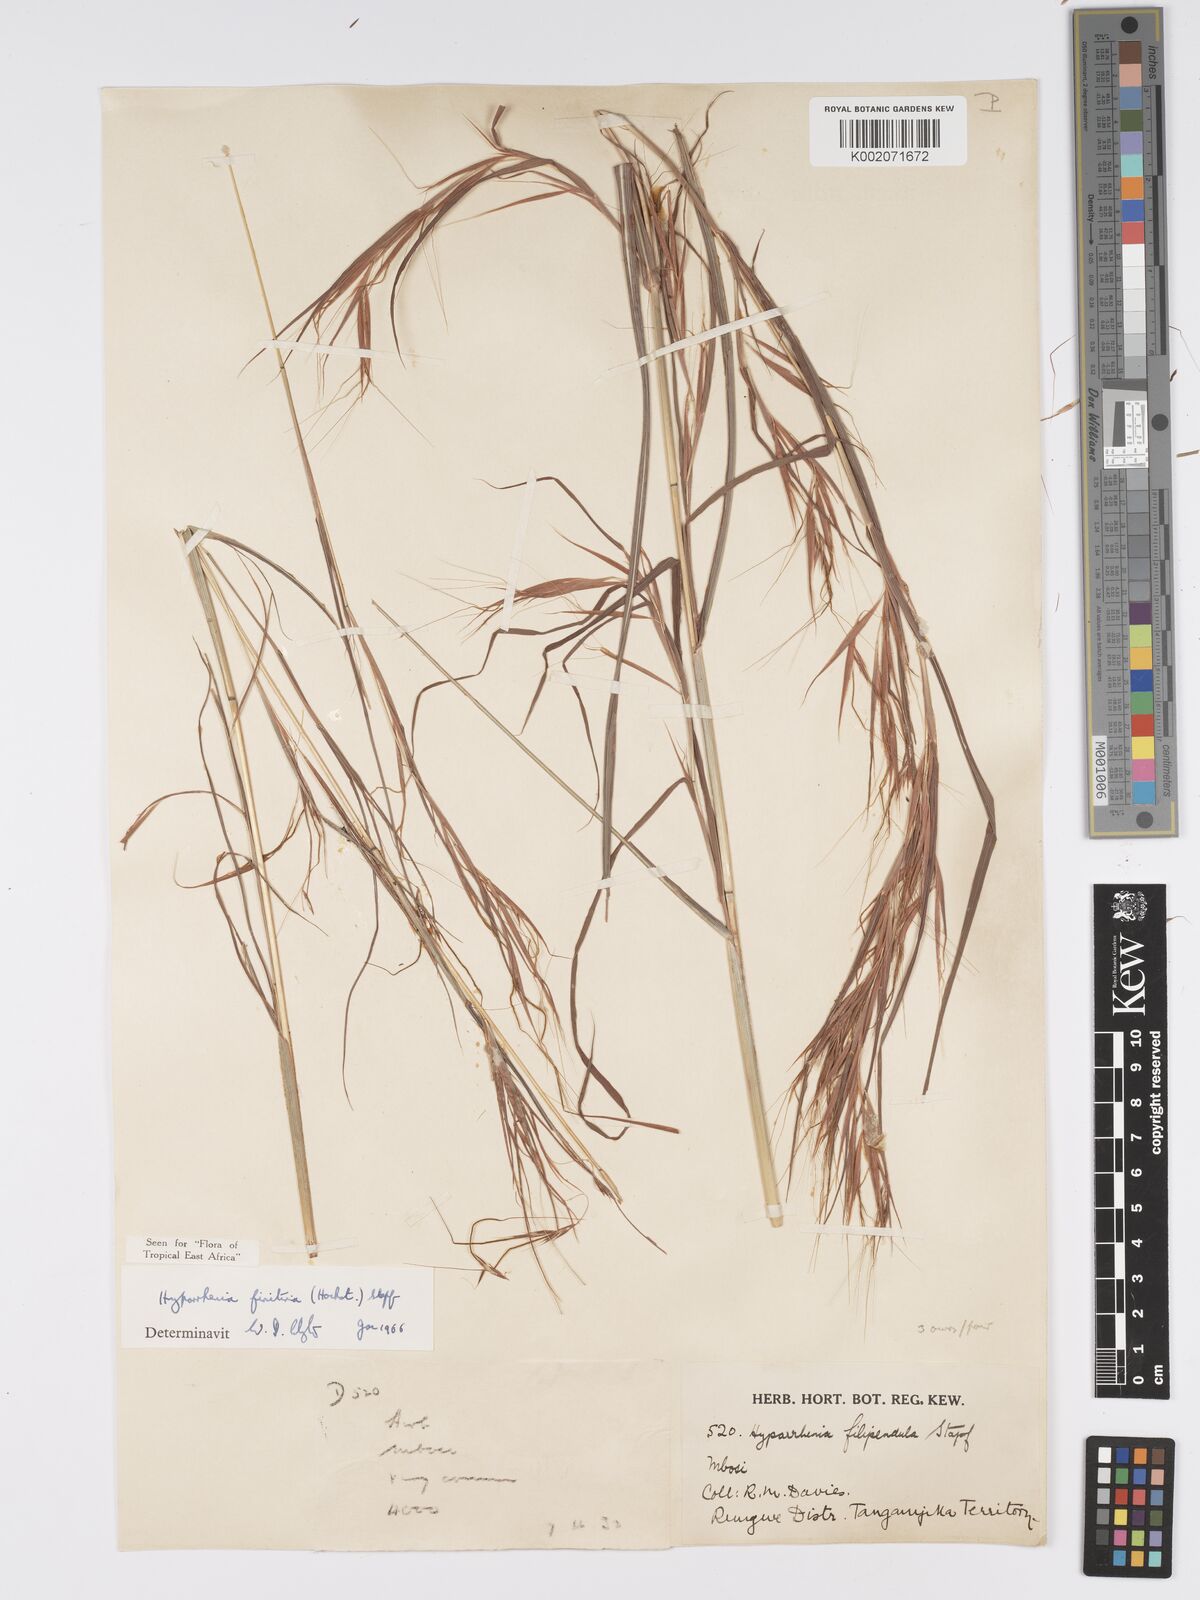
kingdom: Plantae
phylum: Tracheophyta
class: Liliopsida
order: Poales
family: Poaceae
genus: Hyparrhenia
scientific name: Hyparrhenia finitima
